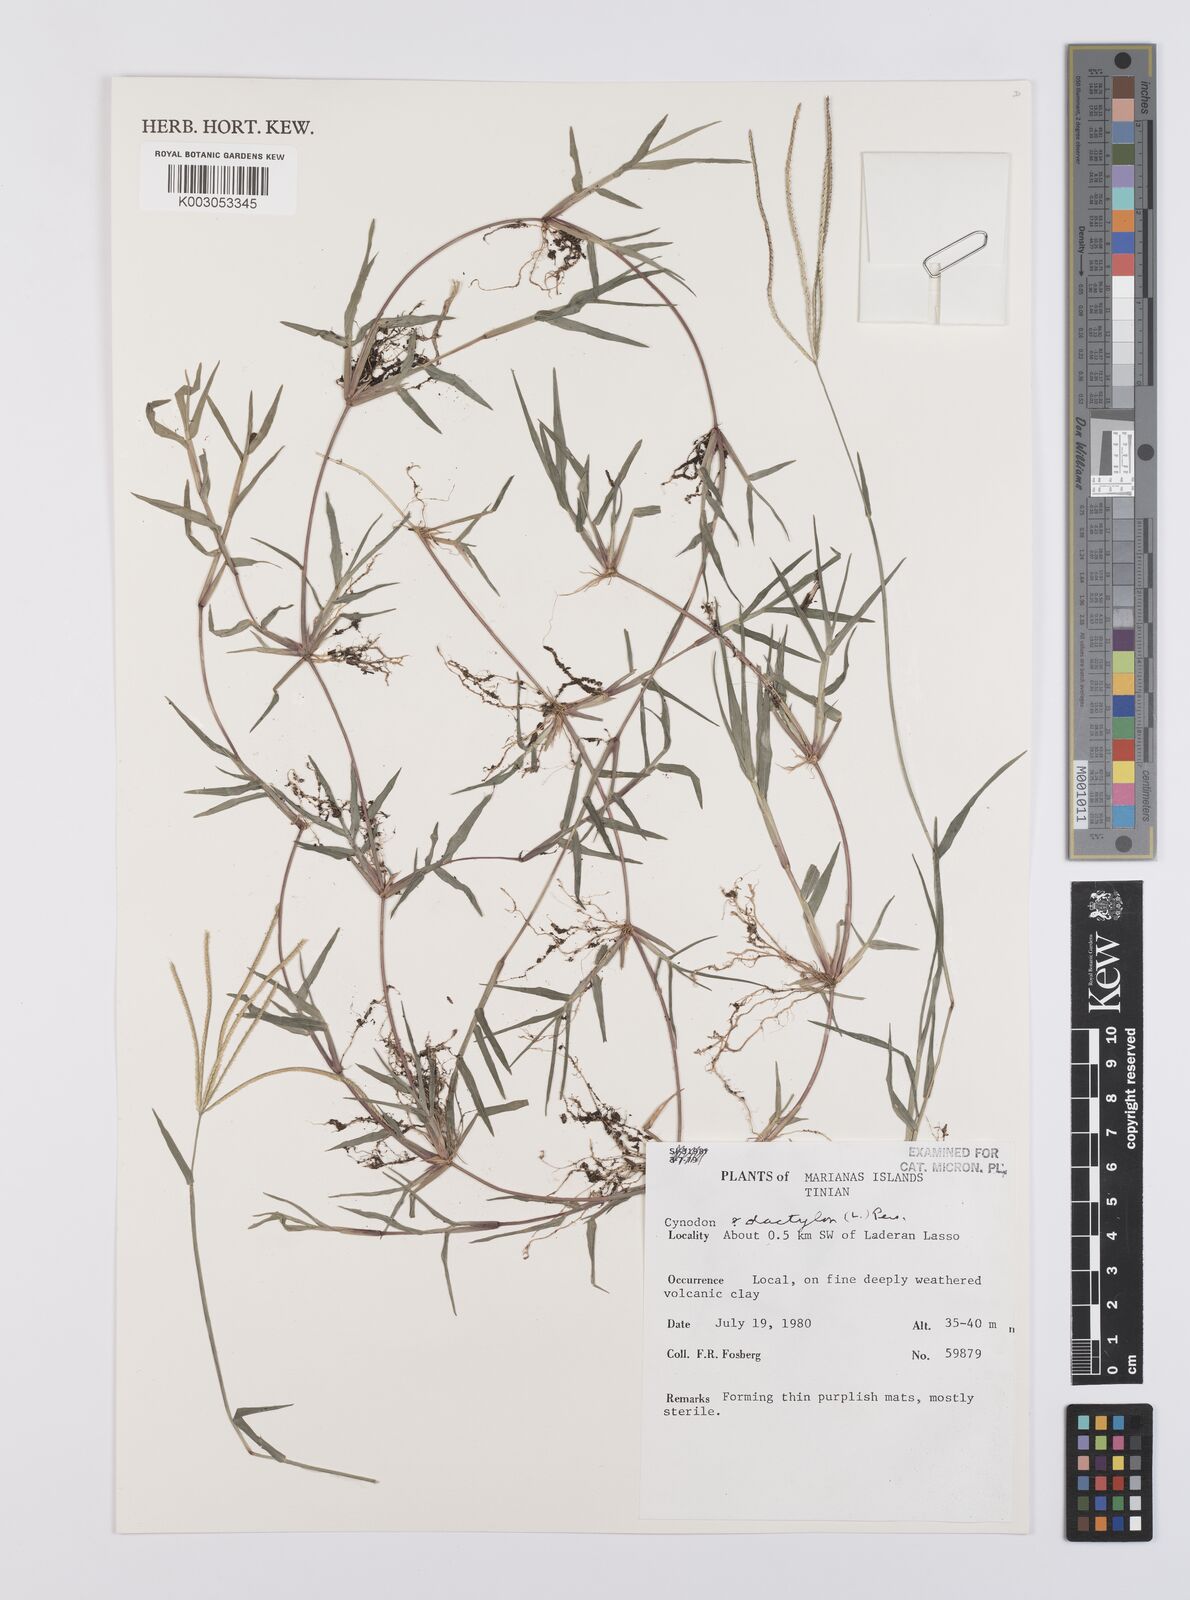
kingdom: Plantae
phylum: Tracheophyta
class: Liliopsida
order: Poales
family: Poaceae
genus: Cynodon
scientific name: Cynodon dactylon
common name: Bermuda grass
